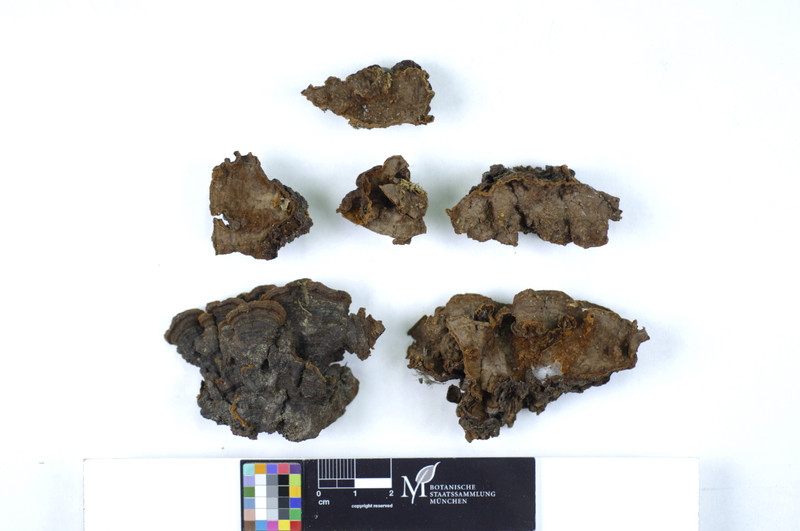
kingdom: Fungi
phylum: Basidiomycota
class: Agaricomycetes
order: Hymenochaetales
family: Hymenochaetaceae
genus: Hymenochaete
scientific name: Hymenochaete rubiginosa
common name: Oak curtain crust
